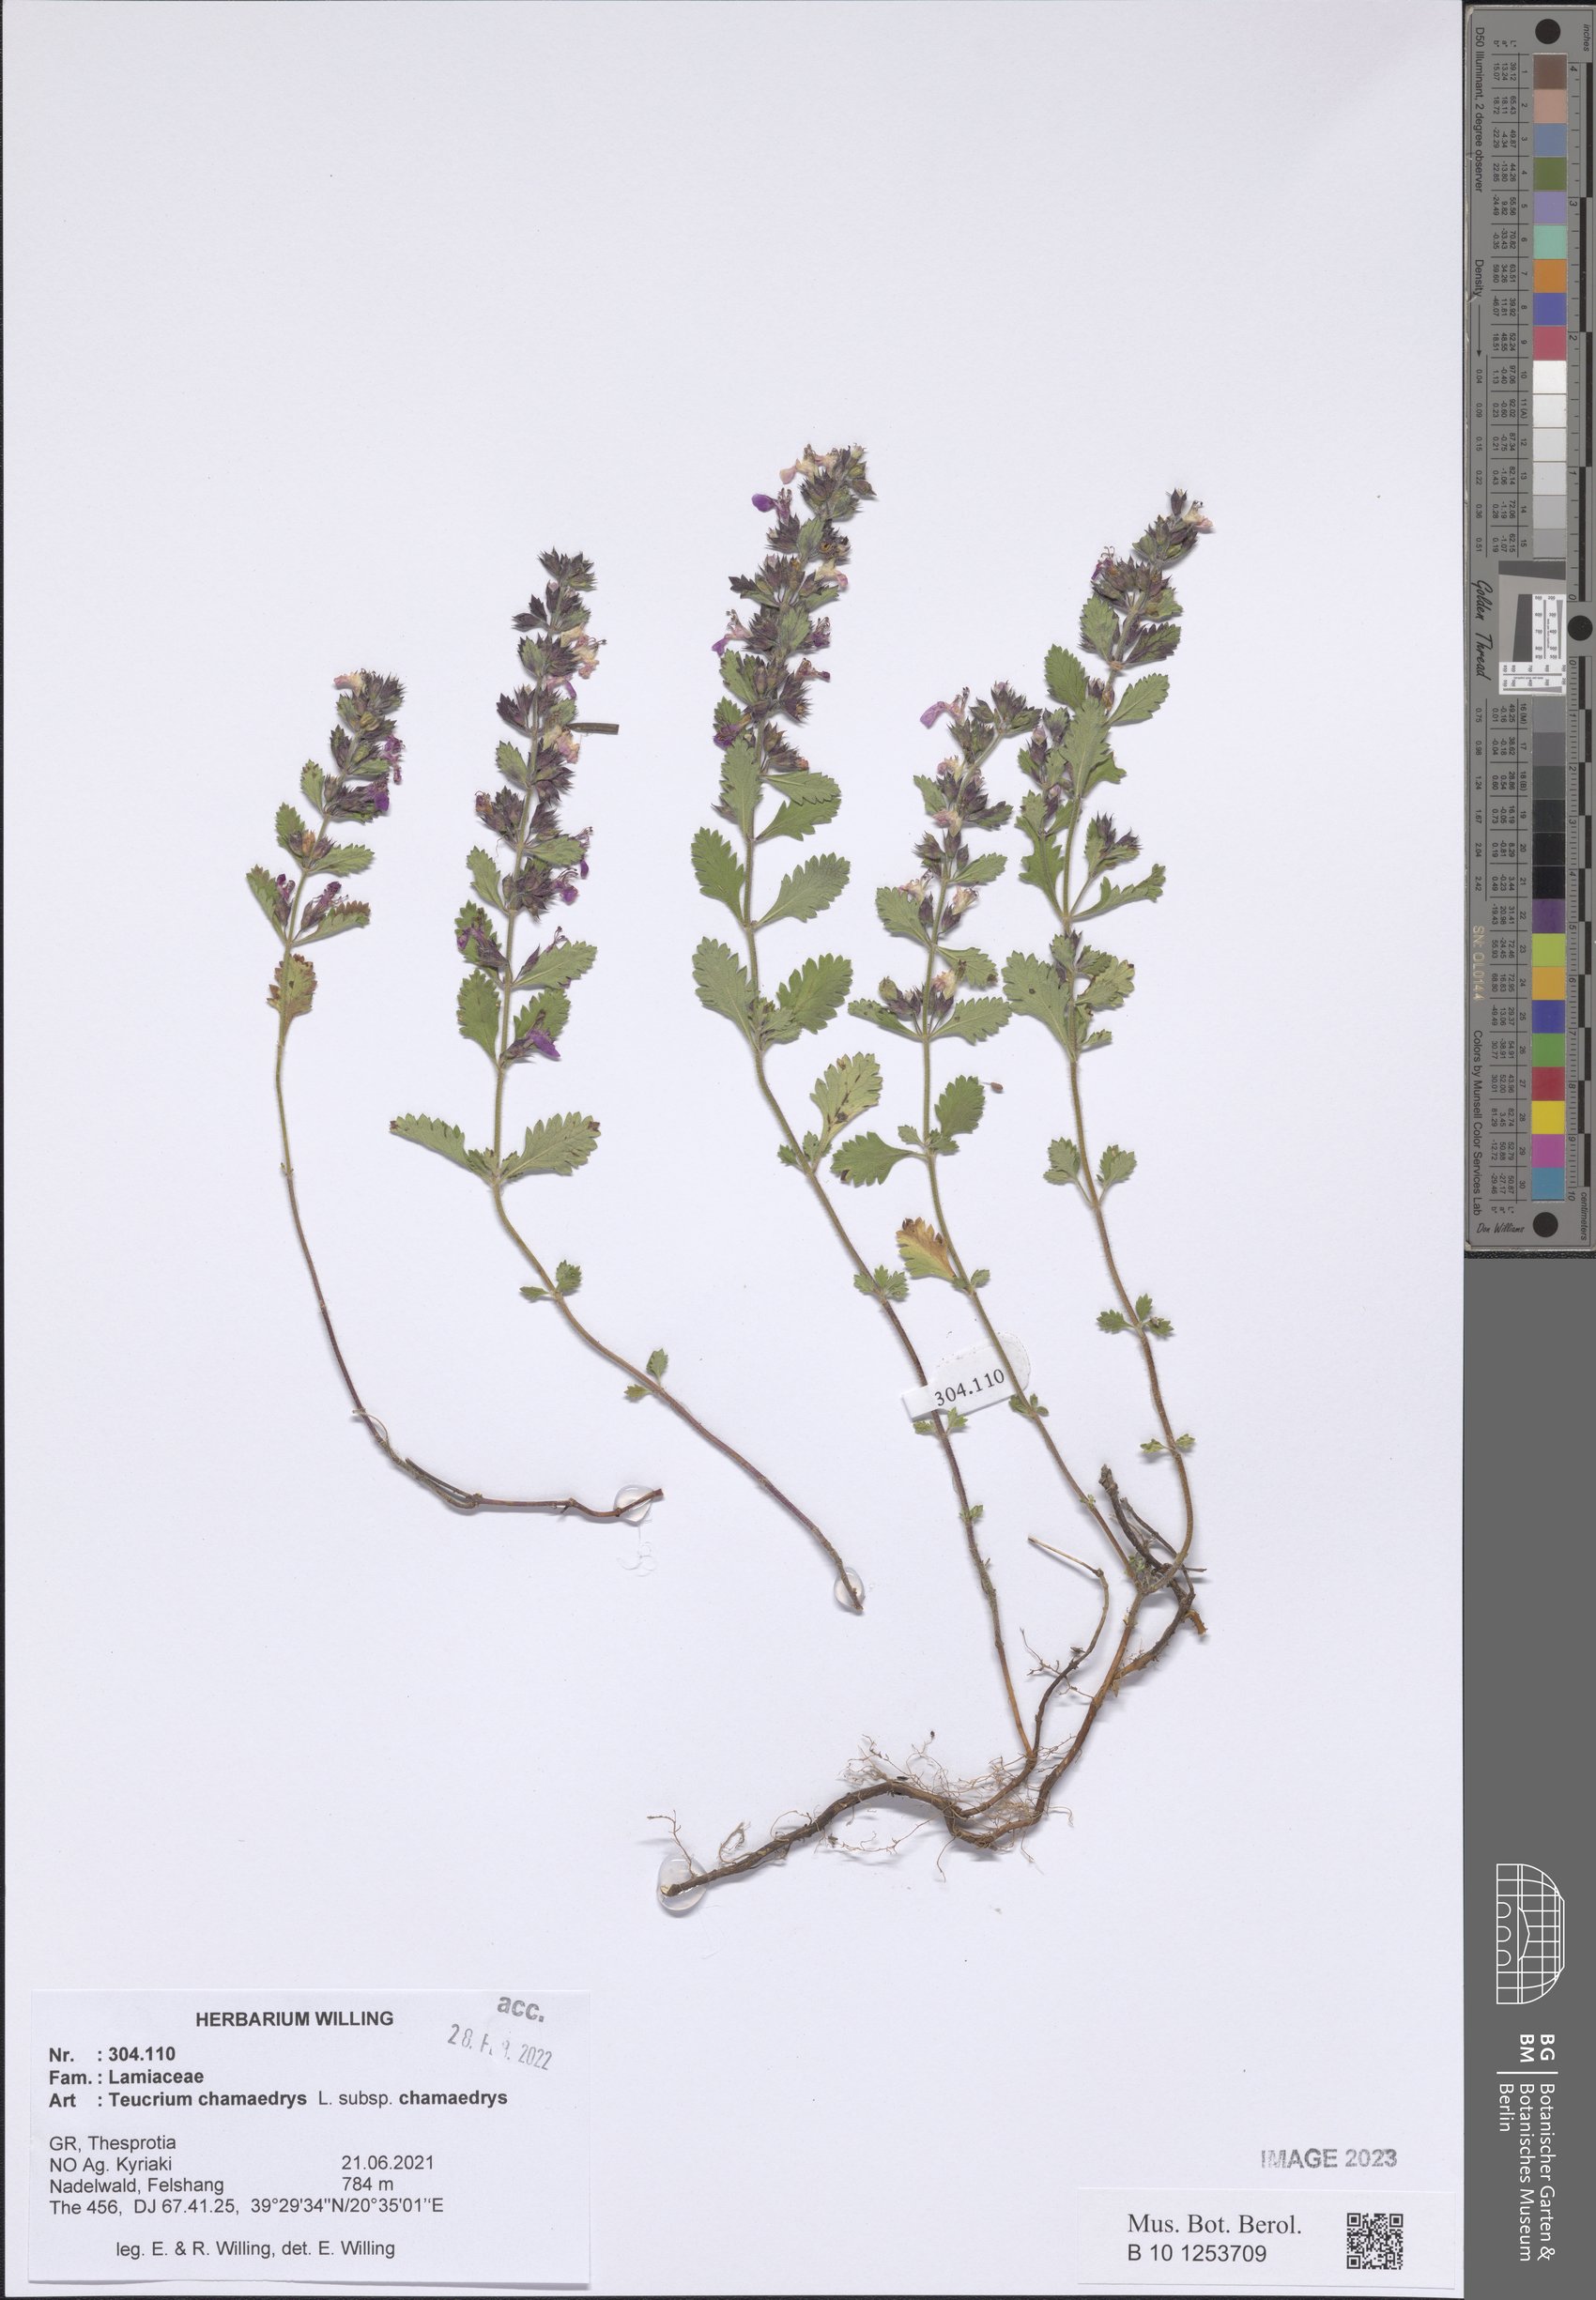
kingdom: Plantae
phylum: Tracheophyta
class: Magnoliopsida
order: Lamiales
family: Lamiaceae
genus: Teucrium
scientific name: Teucrium chamaedrys
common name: Wall germander
